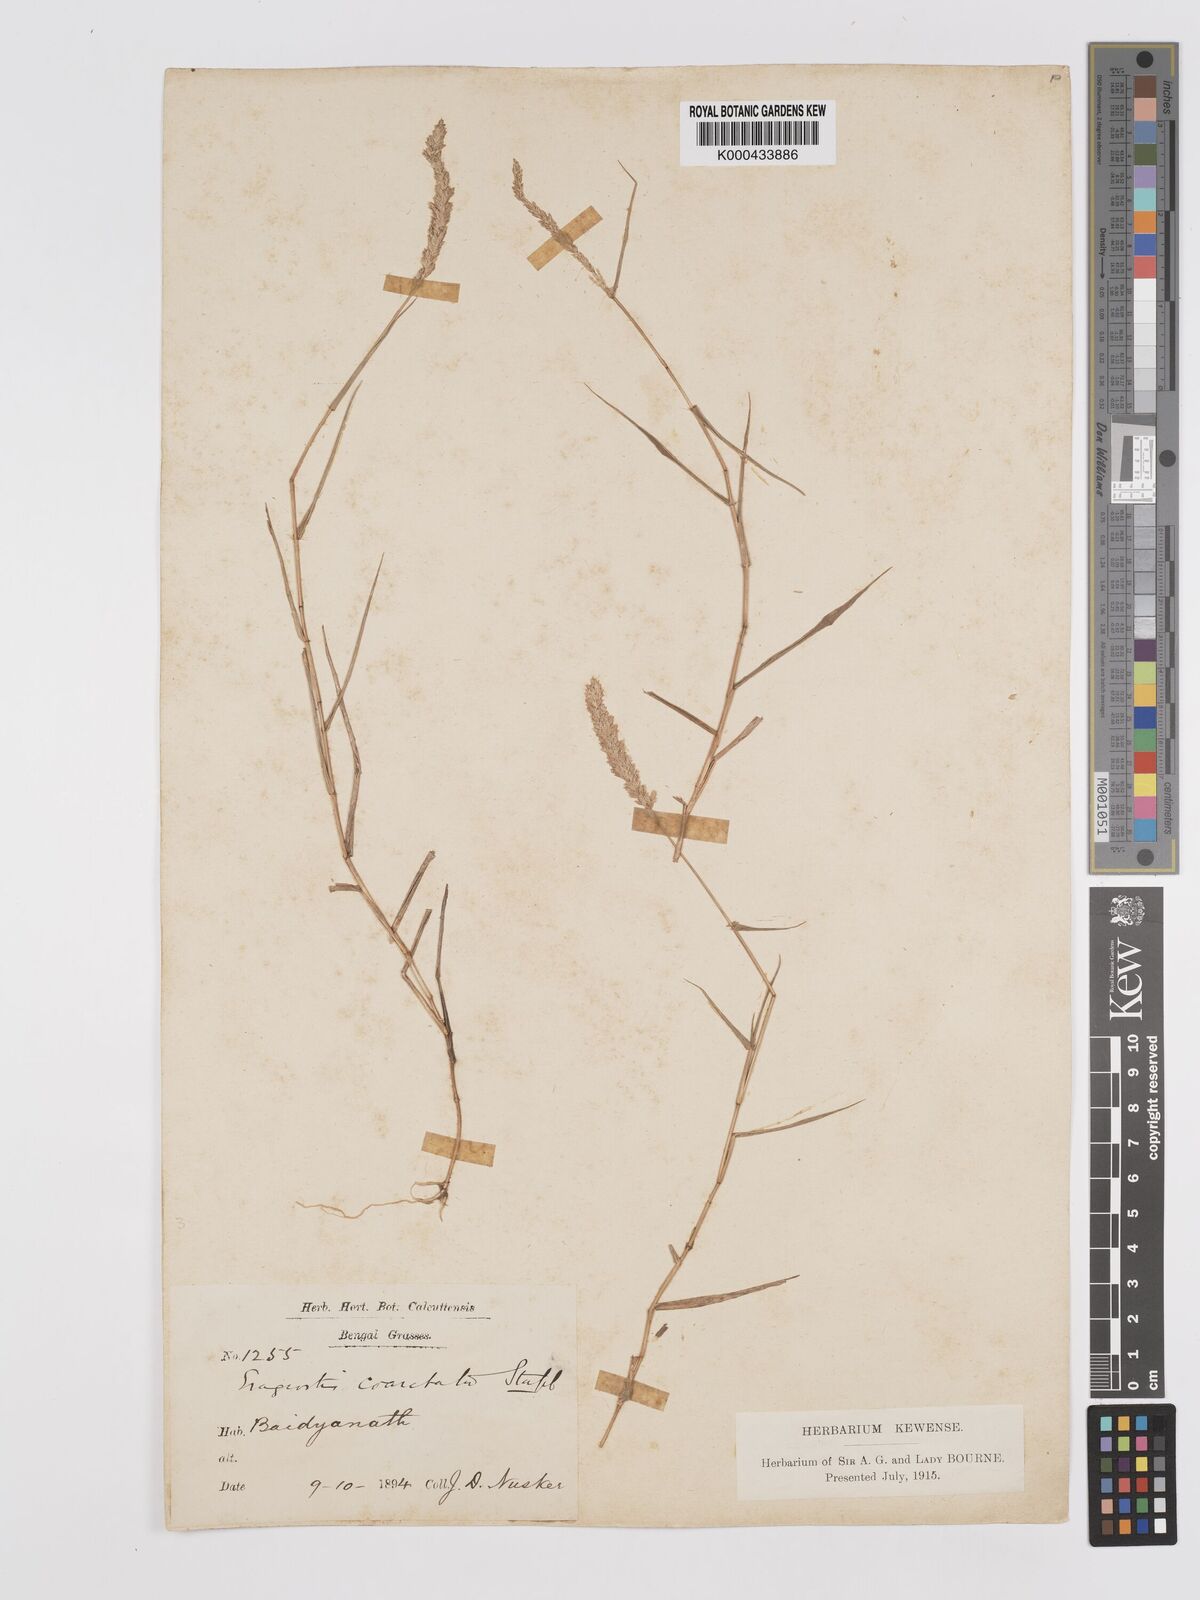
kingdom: Plantae
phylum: Tracheophyta
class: Liliopsida
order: Poales
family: Poaceae
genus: Eragrostis
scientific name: Eragrostis coarctata
